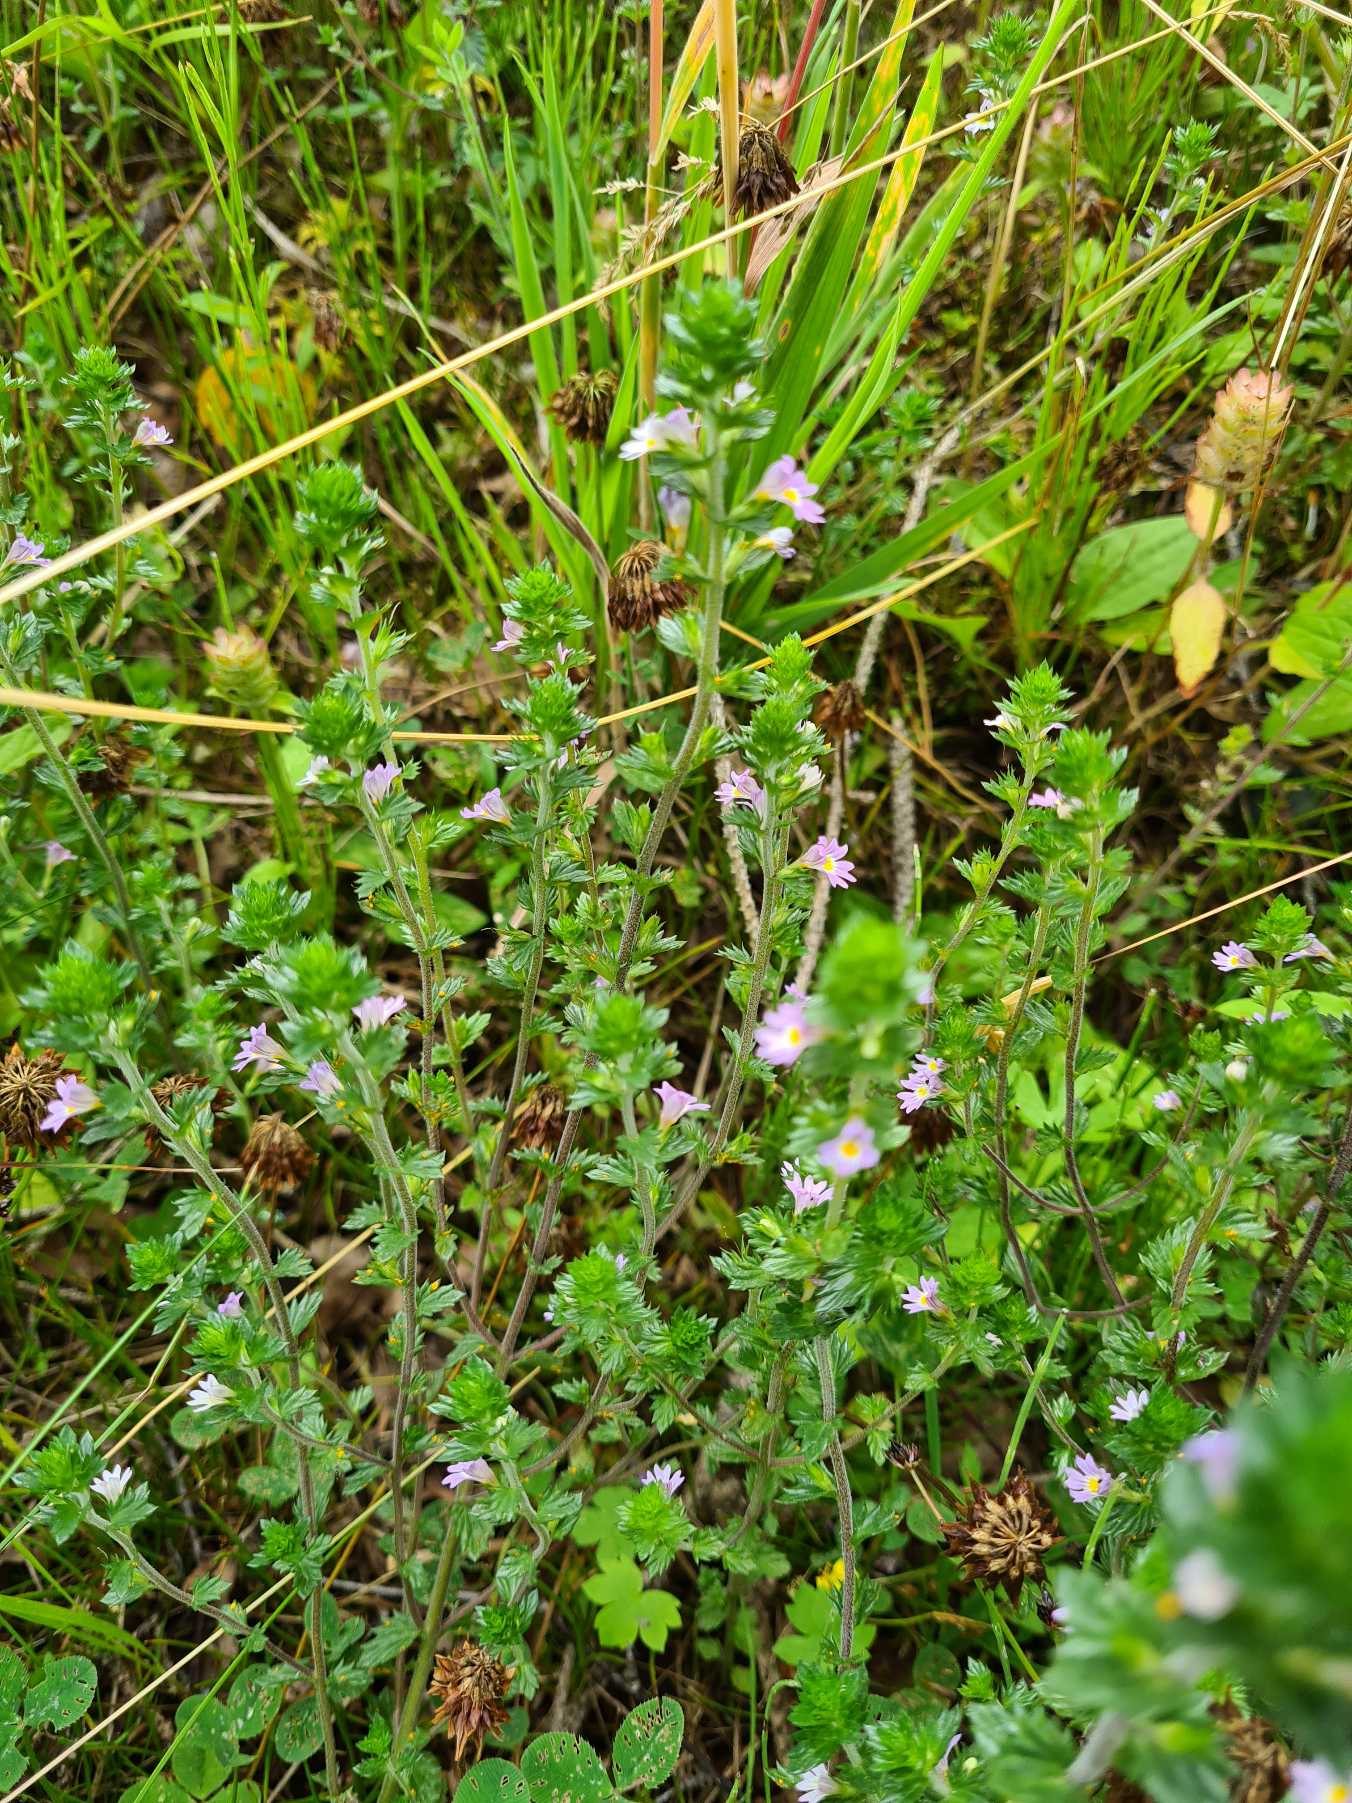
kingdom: Plantae
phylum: Tracheophyta
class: Magnoliopsida
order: Lamiales
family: Orobanchaceae
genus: Euphrasia
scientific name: Euphrasia vernalis
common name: Kirtel-øjentrøst
